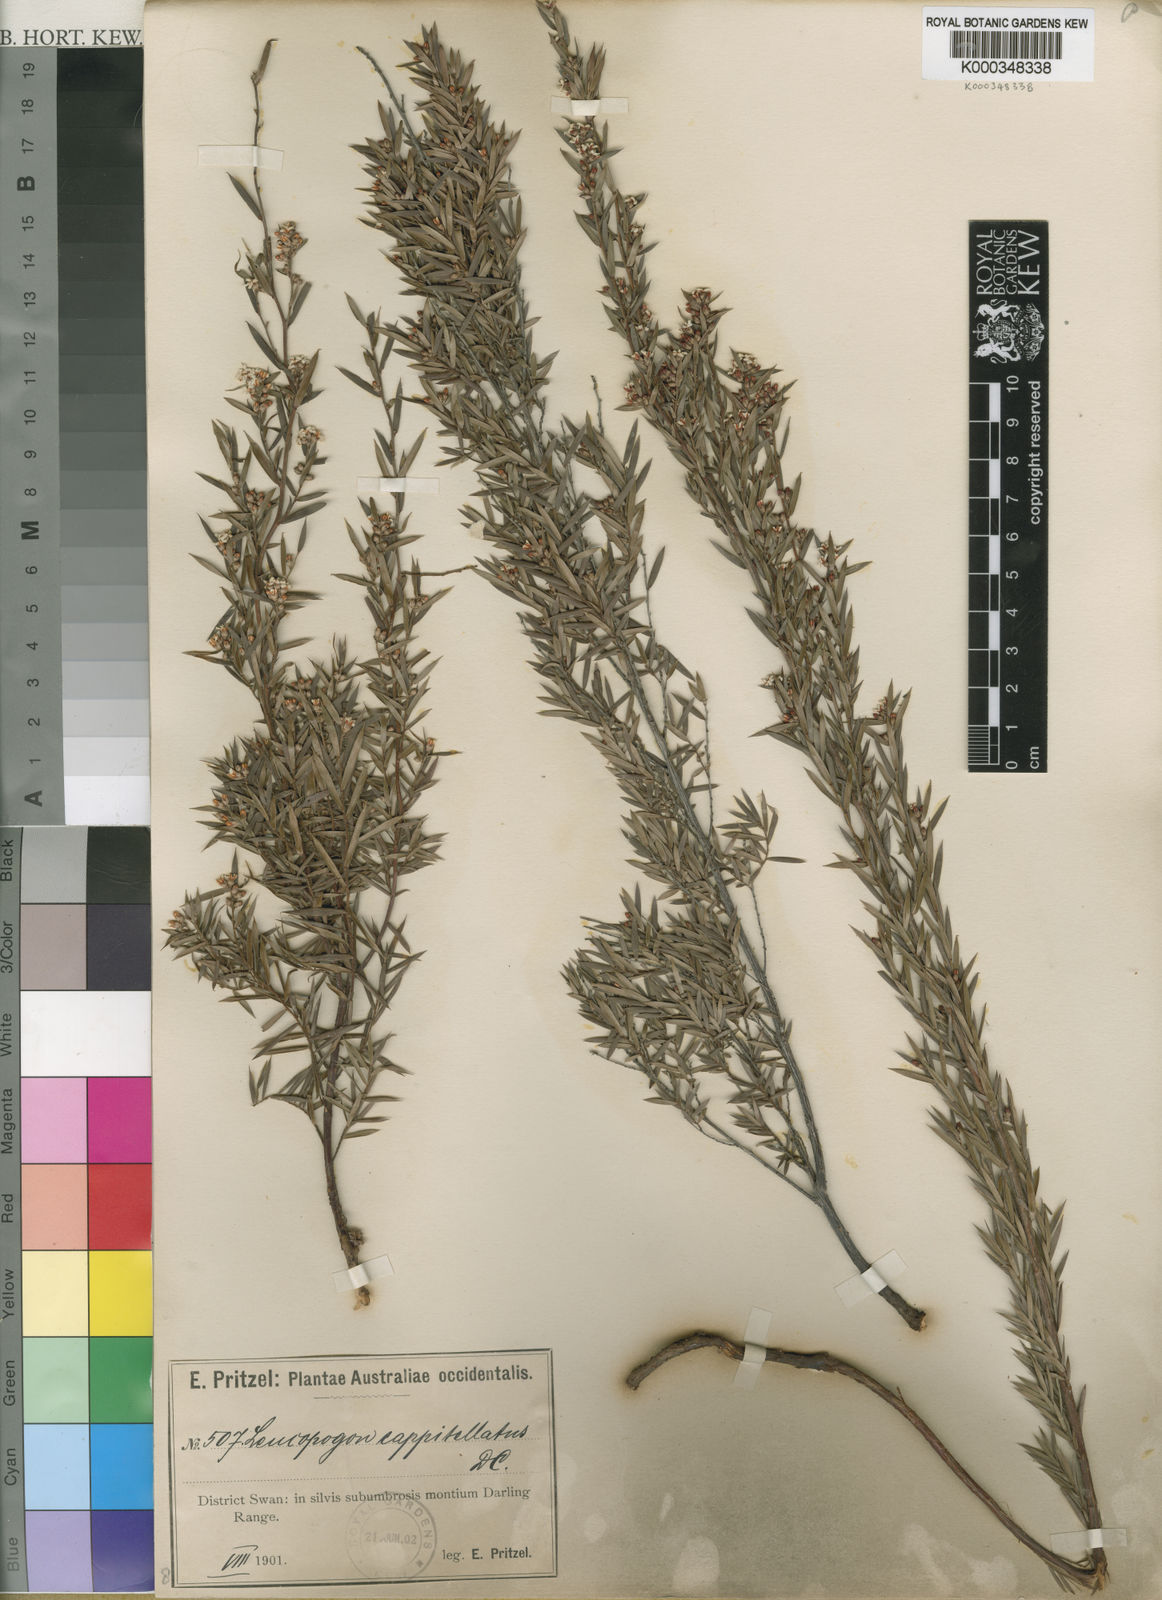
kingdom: Plantae
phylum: Tracheophyta
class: Magnoliopsida
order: Ericales
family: Ericaceae
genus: Leucopogon
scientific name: Leucopogon capitellatus
